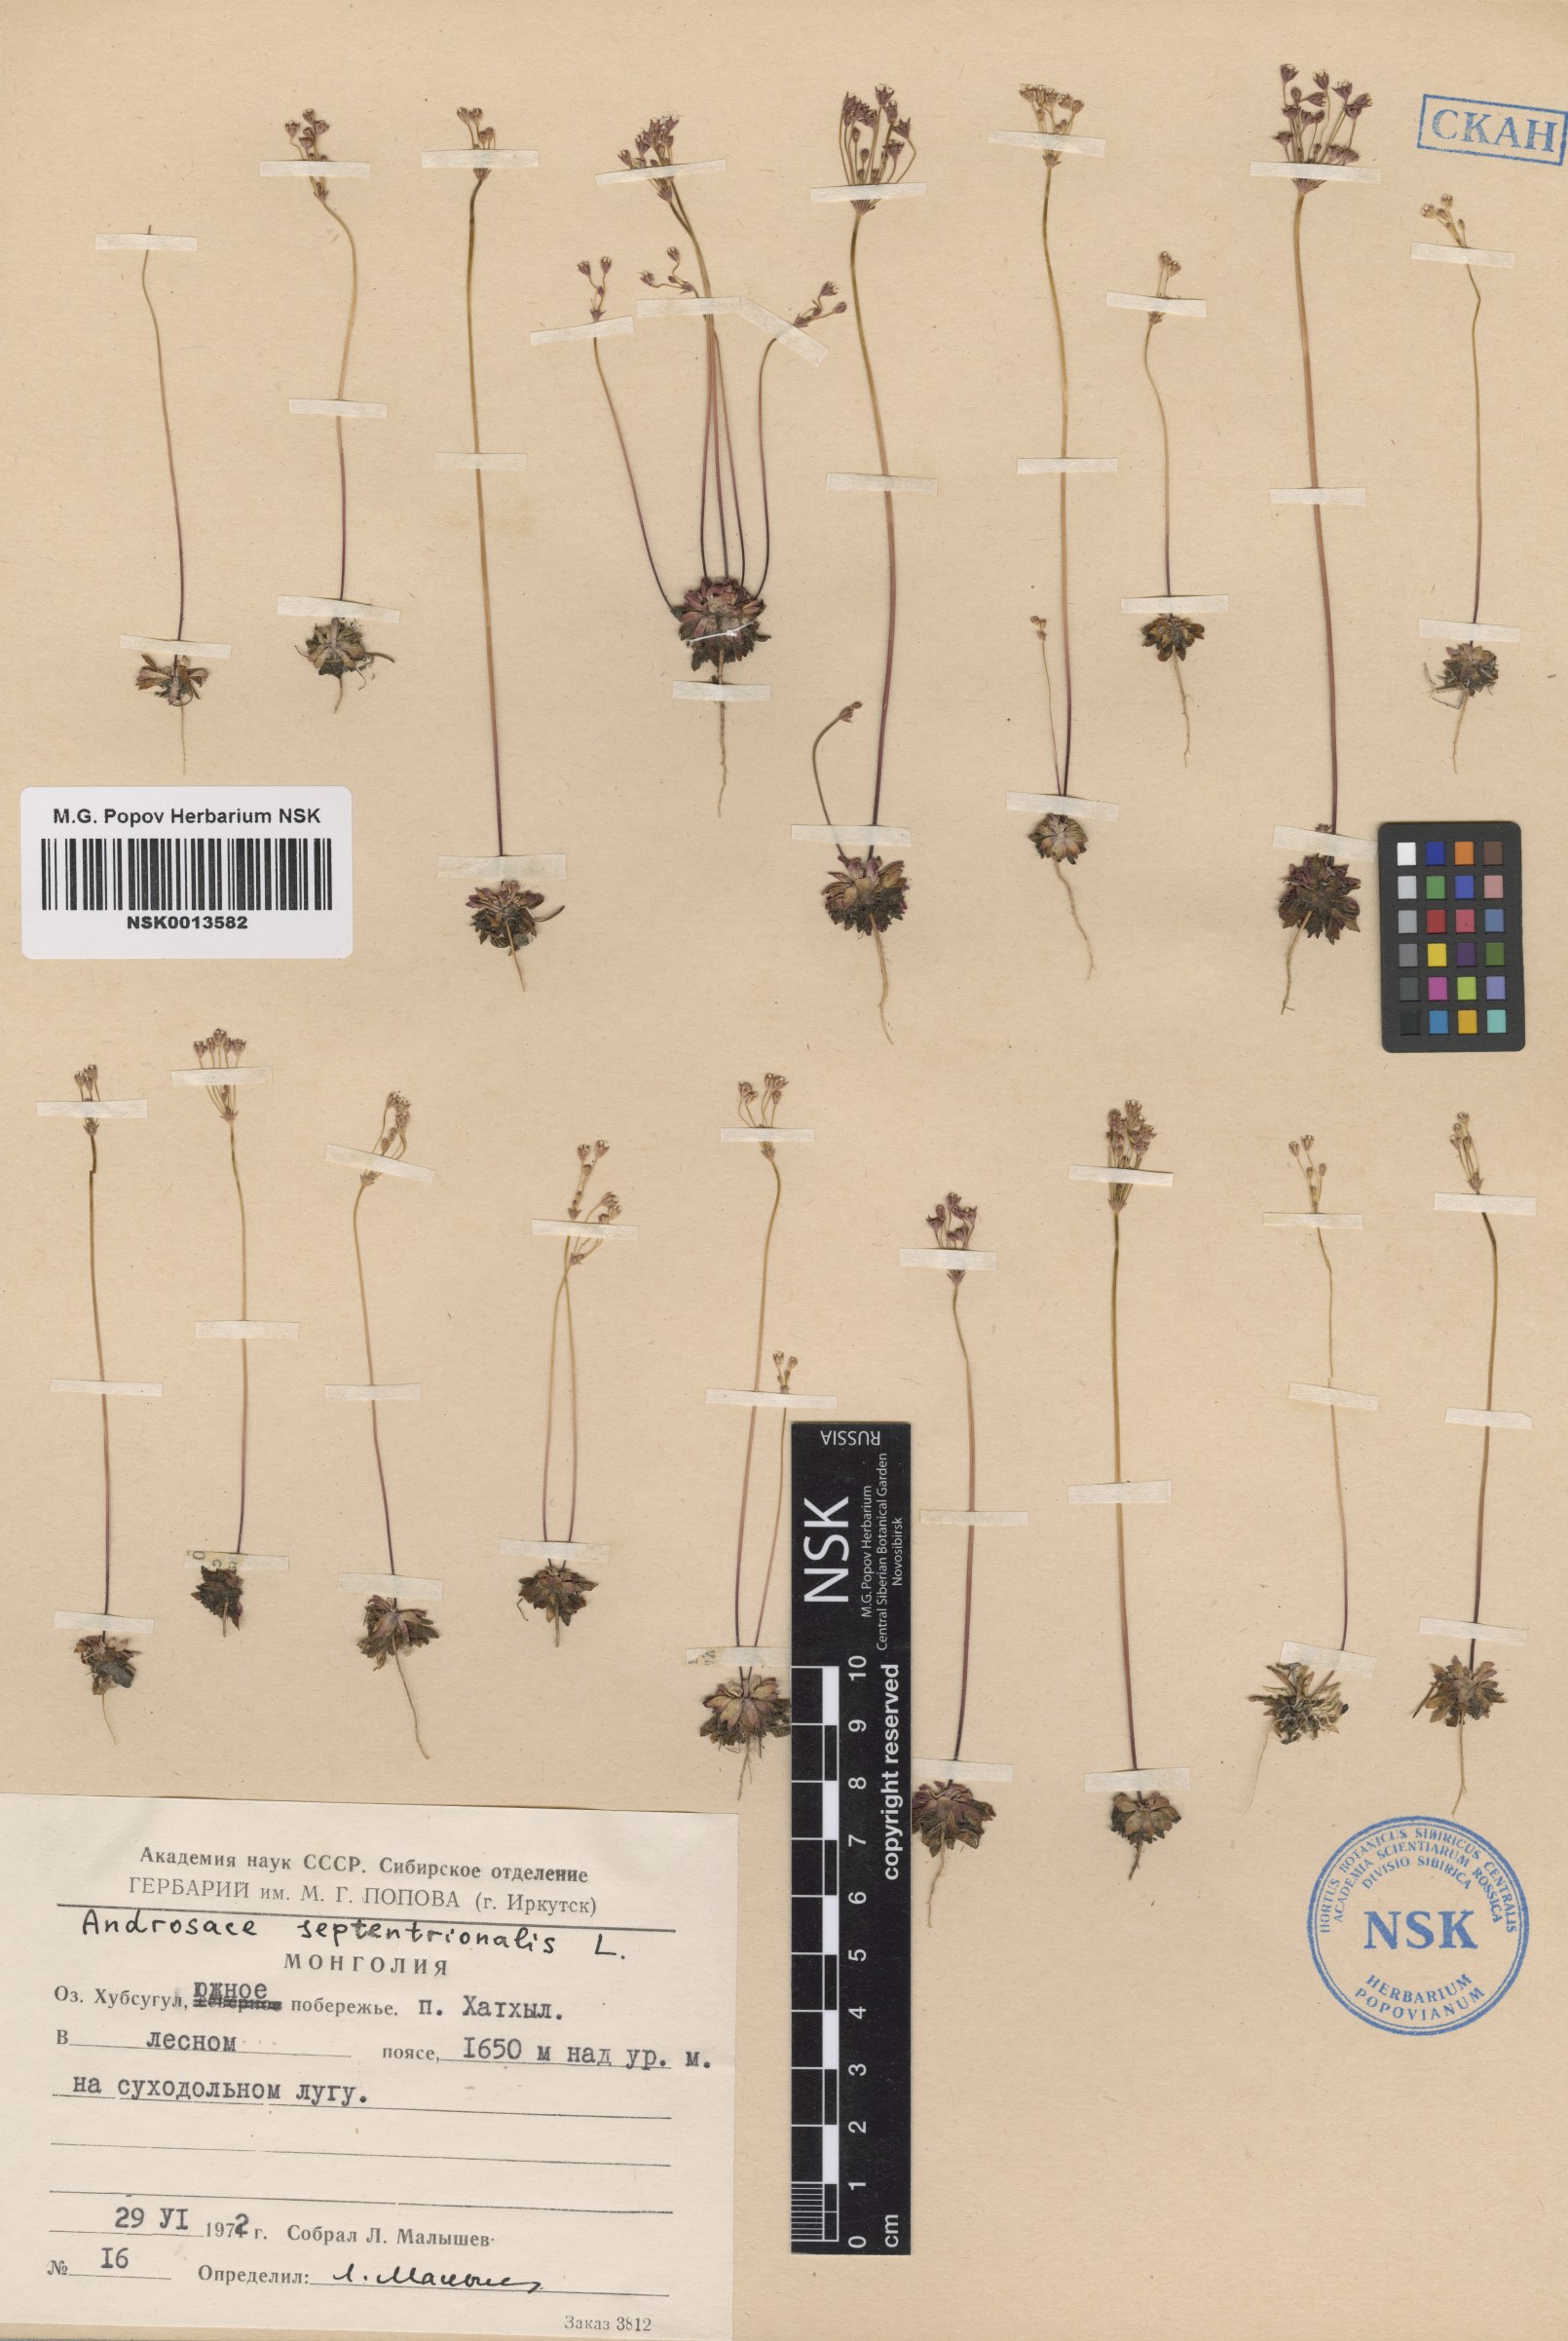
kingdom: Plantae
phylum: Tracheophyta
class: Magnoliopsida
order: Ericales
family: Primulaceae
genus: Androsace
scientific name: Androsace septentrionalis
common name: Hairy northern fairy-candelabra
